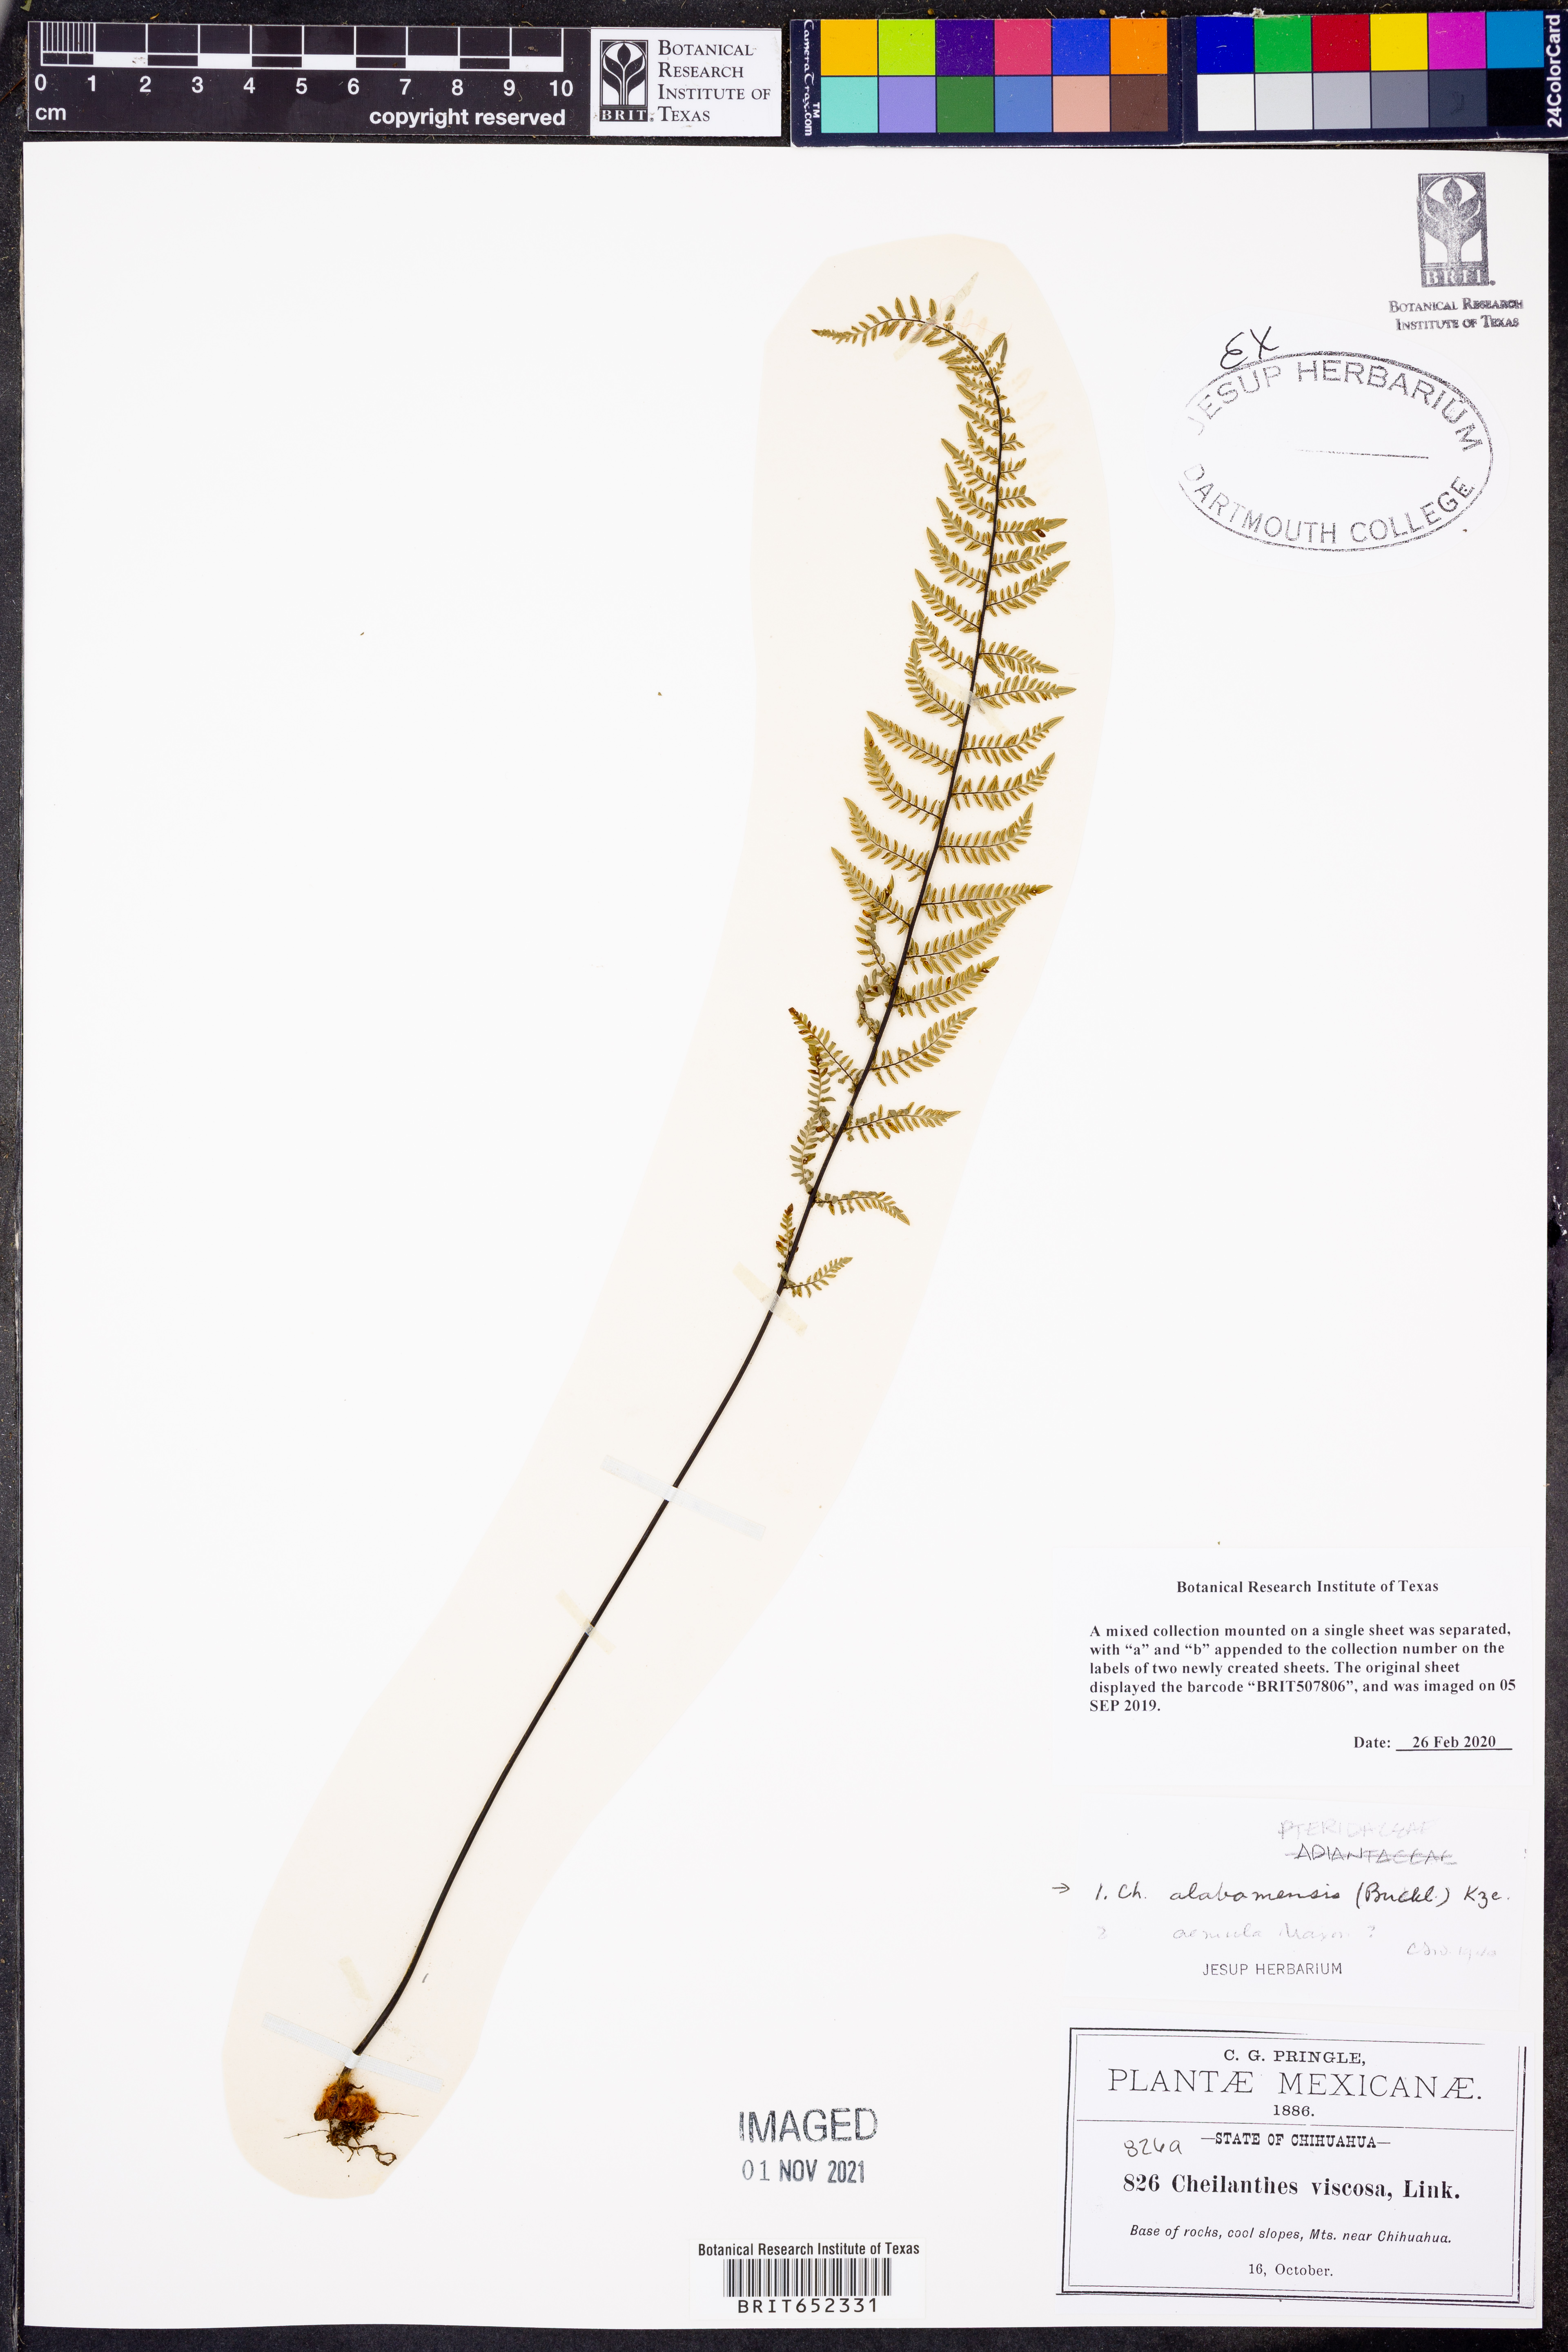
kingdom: Plantae
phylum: Tracheophyta
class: Polypodiopsida
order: Polypodiales
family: Pteridaceae
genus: Myriopteris
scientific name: Myriopteris alabamensis
